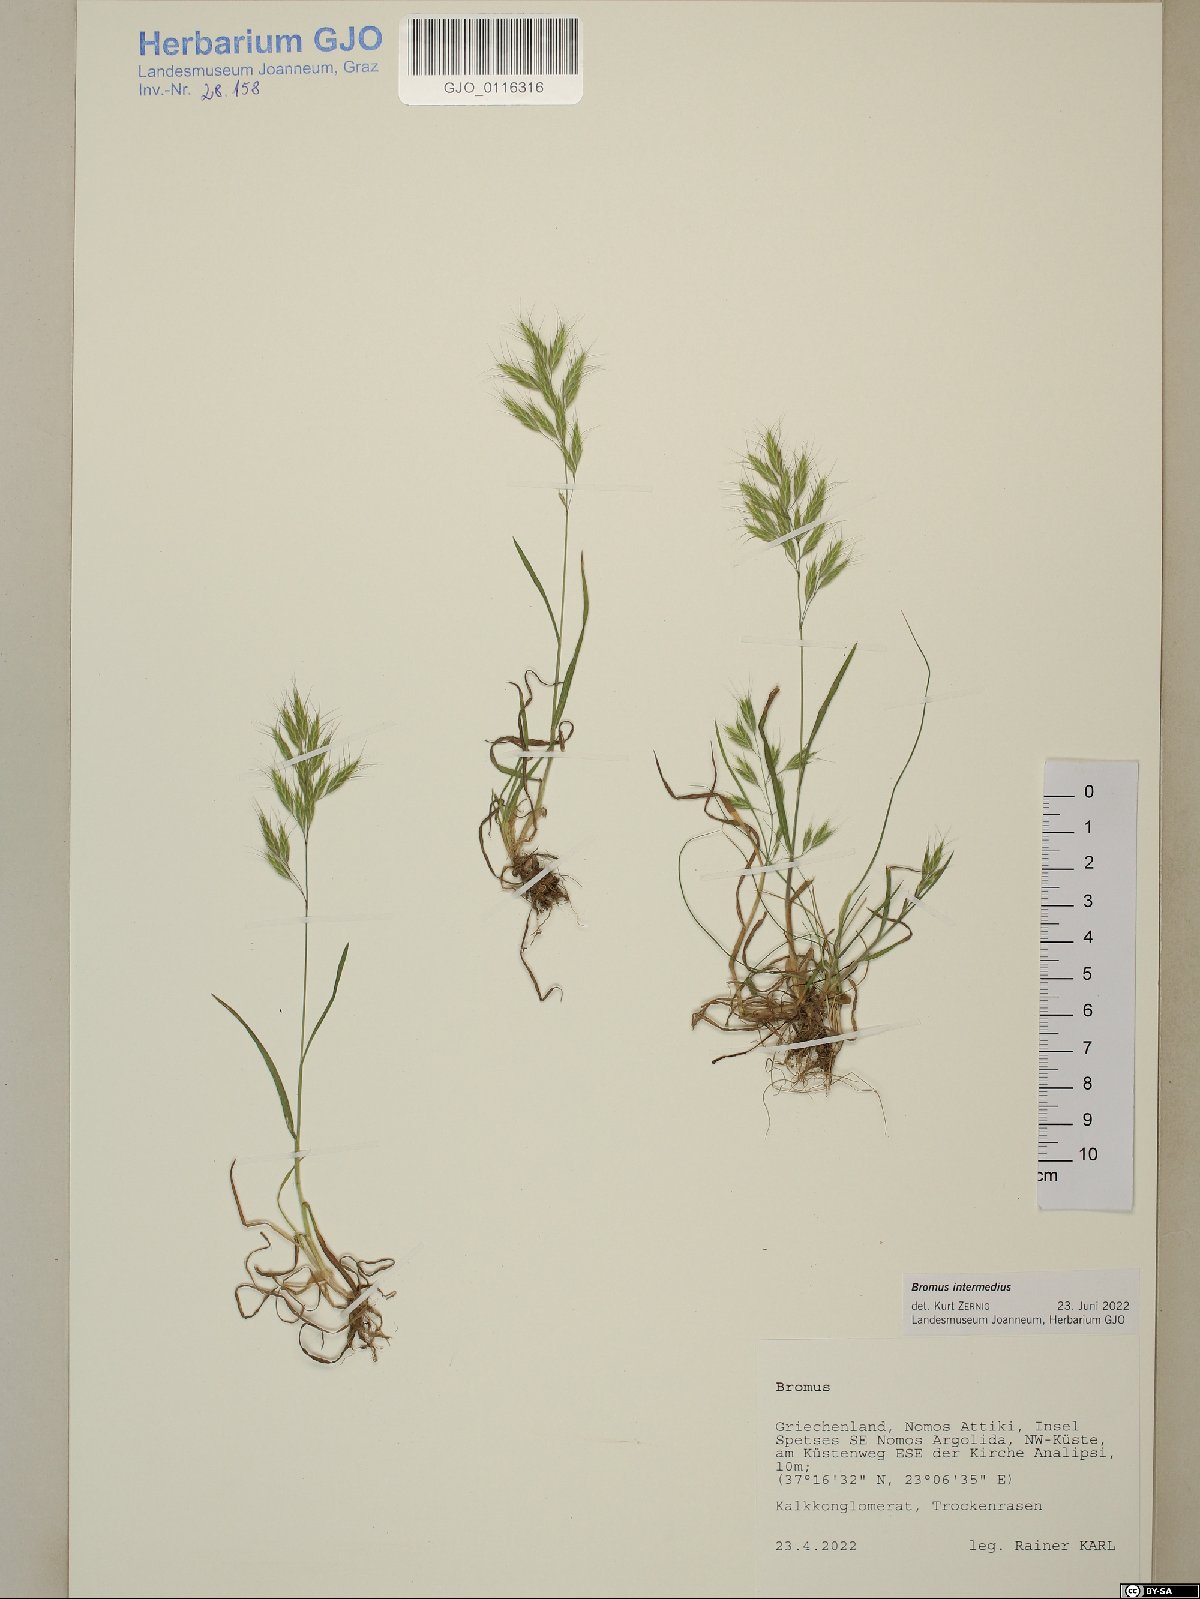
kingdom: Plantae
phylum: Tracheophyta
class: Liliopsida
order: Poales
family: Poaceae
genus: Bromus
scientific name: Bromus intermedius
